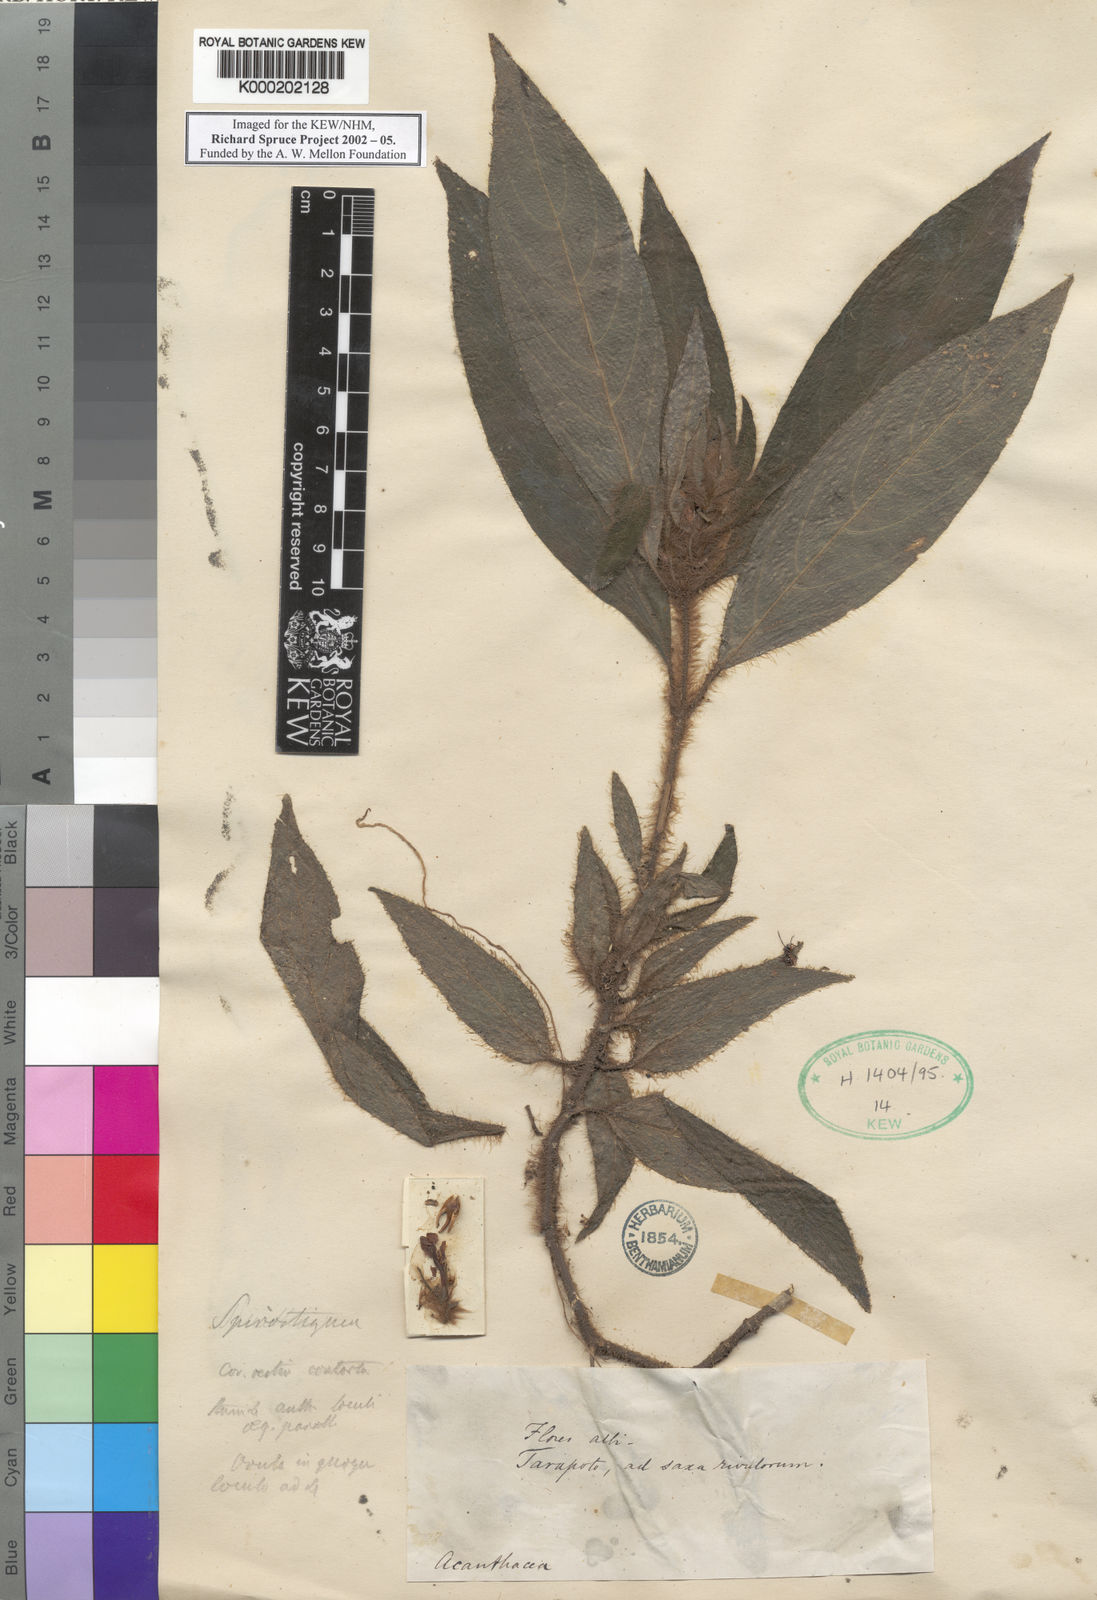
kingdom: Plantae
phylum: Tracheophyta
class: Magnoliopsida
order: Lamiales
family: Acanthaceae
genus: Ruellia
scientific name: Ruellia hirsutissima
